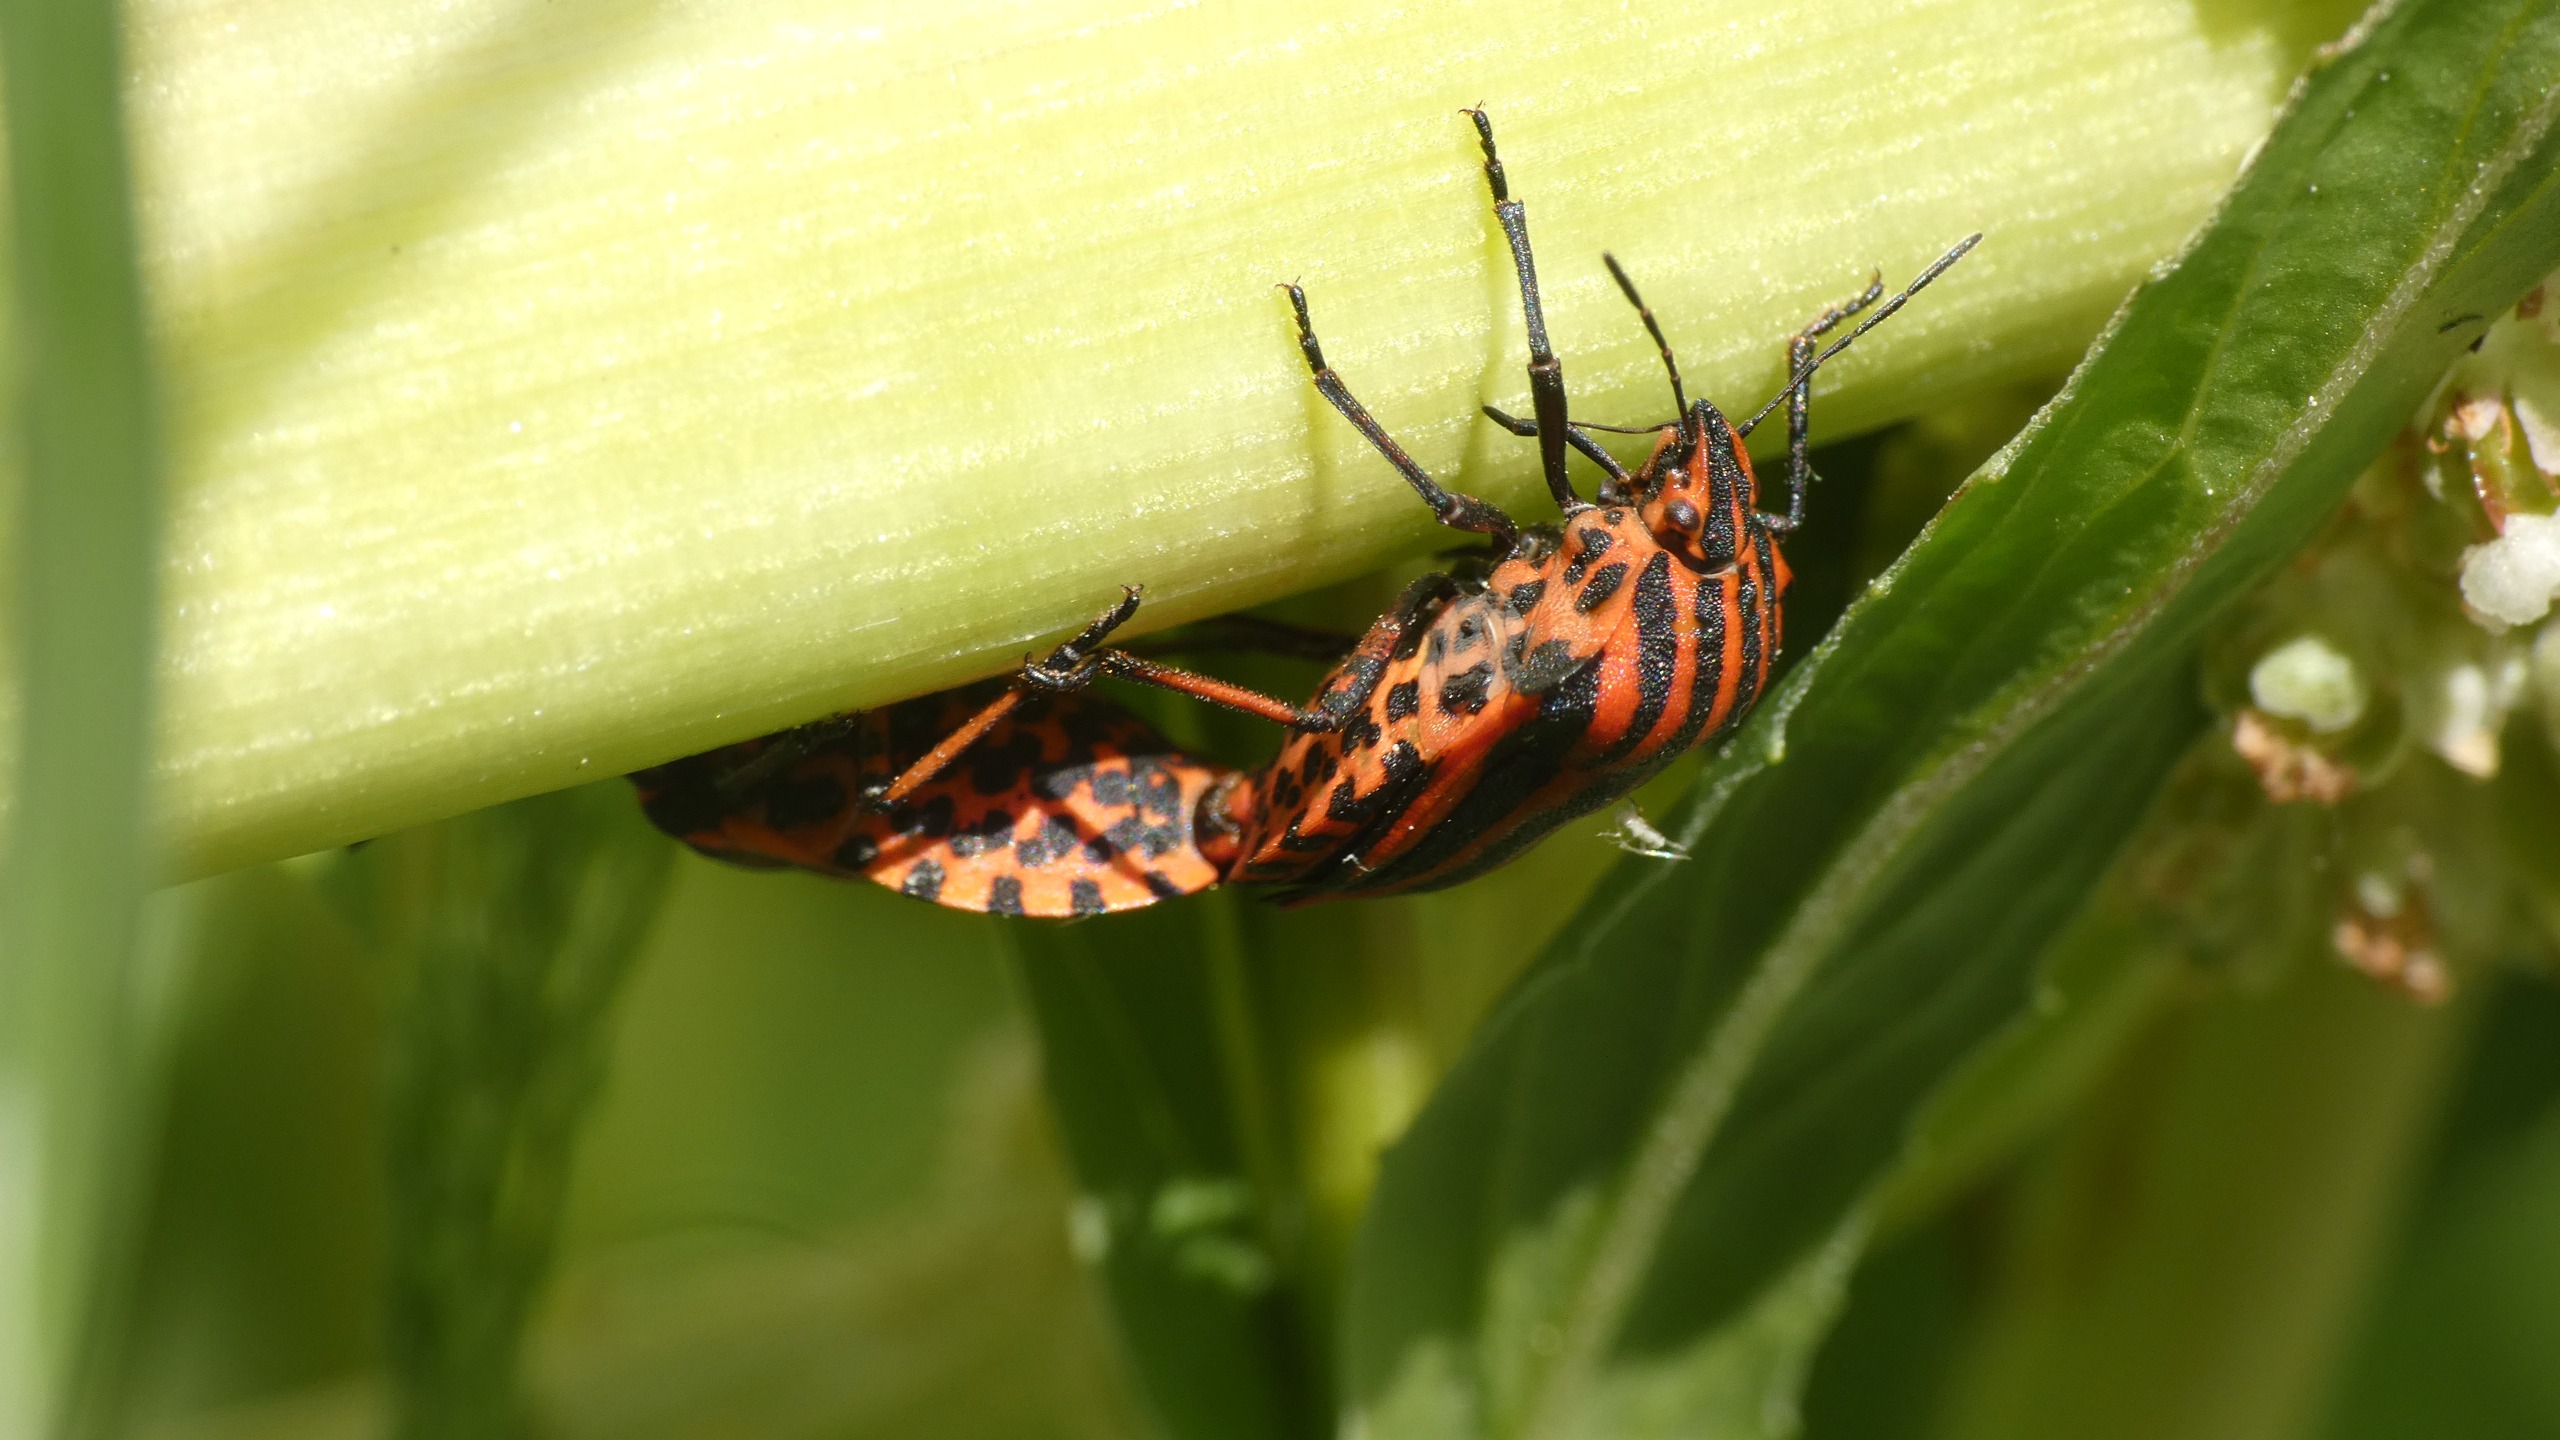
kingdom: Animalia
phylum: Arthropoda
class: Insecta
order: Hemiptera
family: Pentatomidae
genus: Graphosoma
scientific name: Graphosoma italicum
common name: Stribetæge
